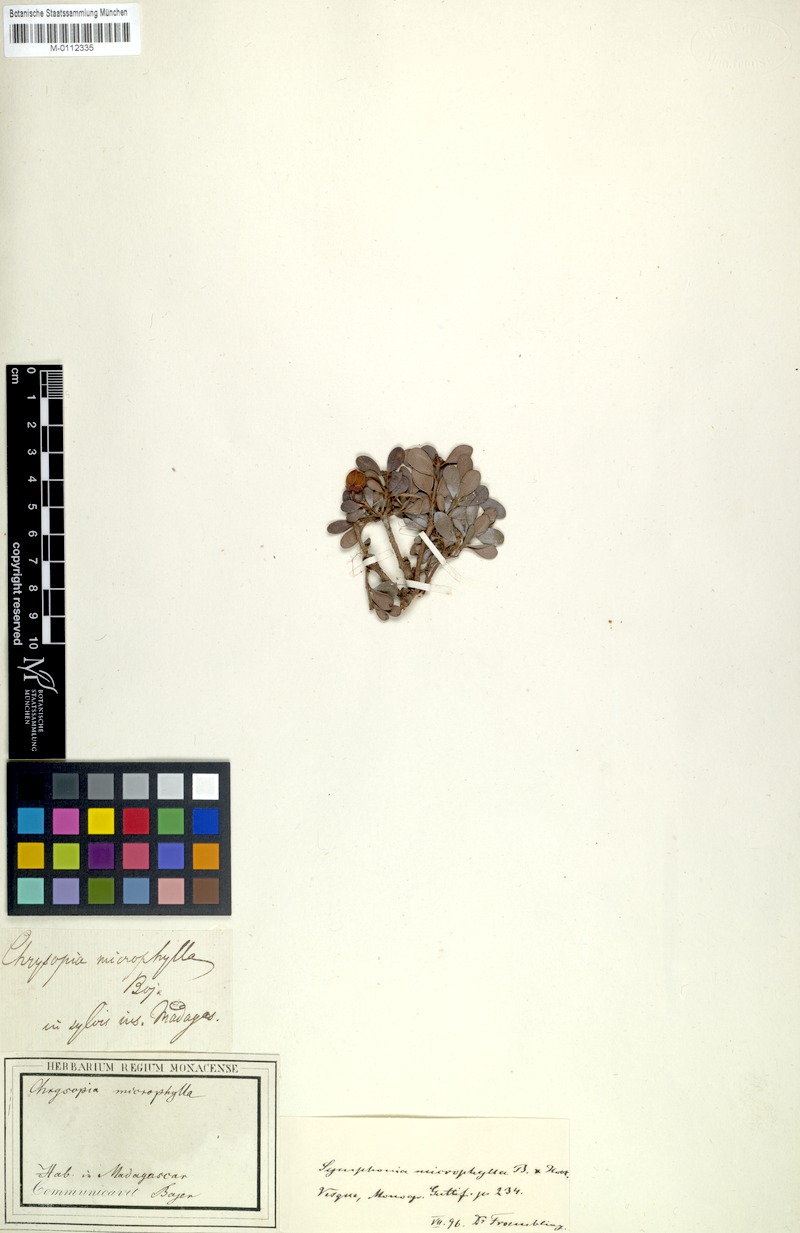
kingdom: Plantae
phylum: Tracheophyta
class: Magnoliopsida
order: Malpighiales
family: Clusiaceae
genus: Symphonia
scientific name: Symphonia microphylla
